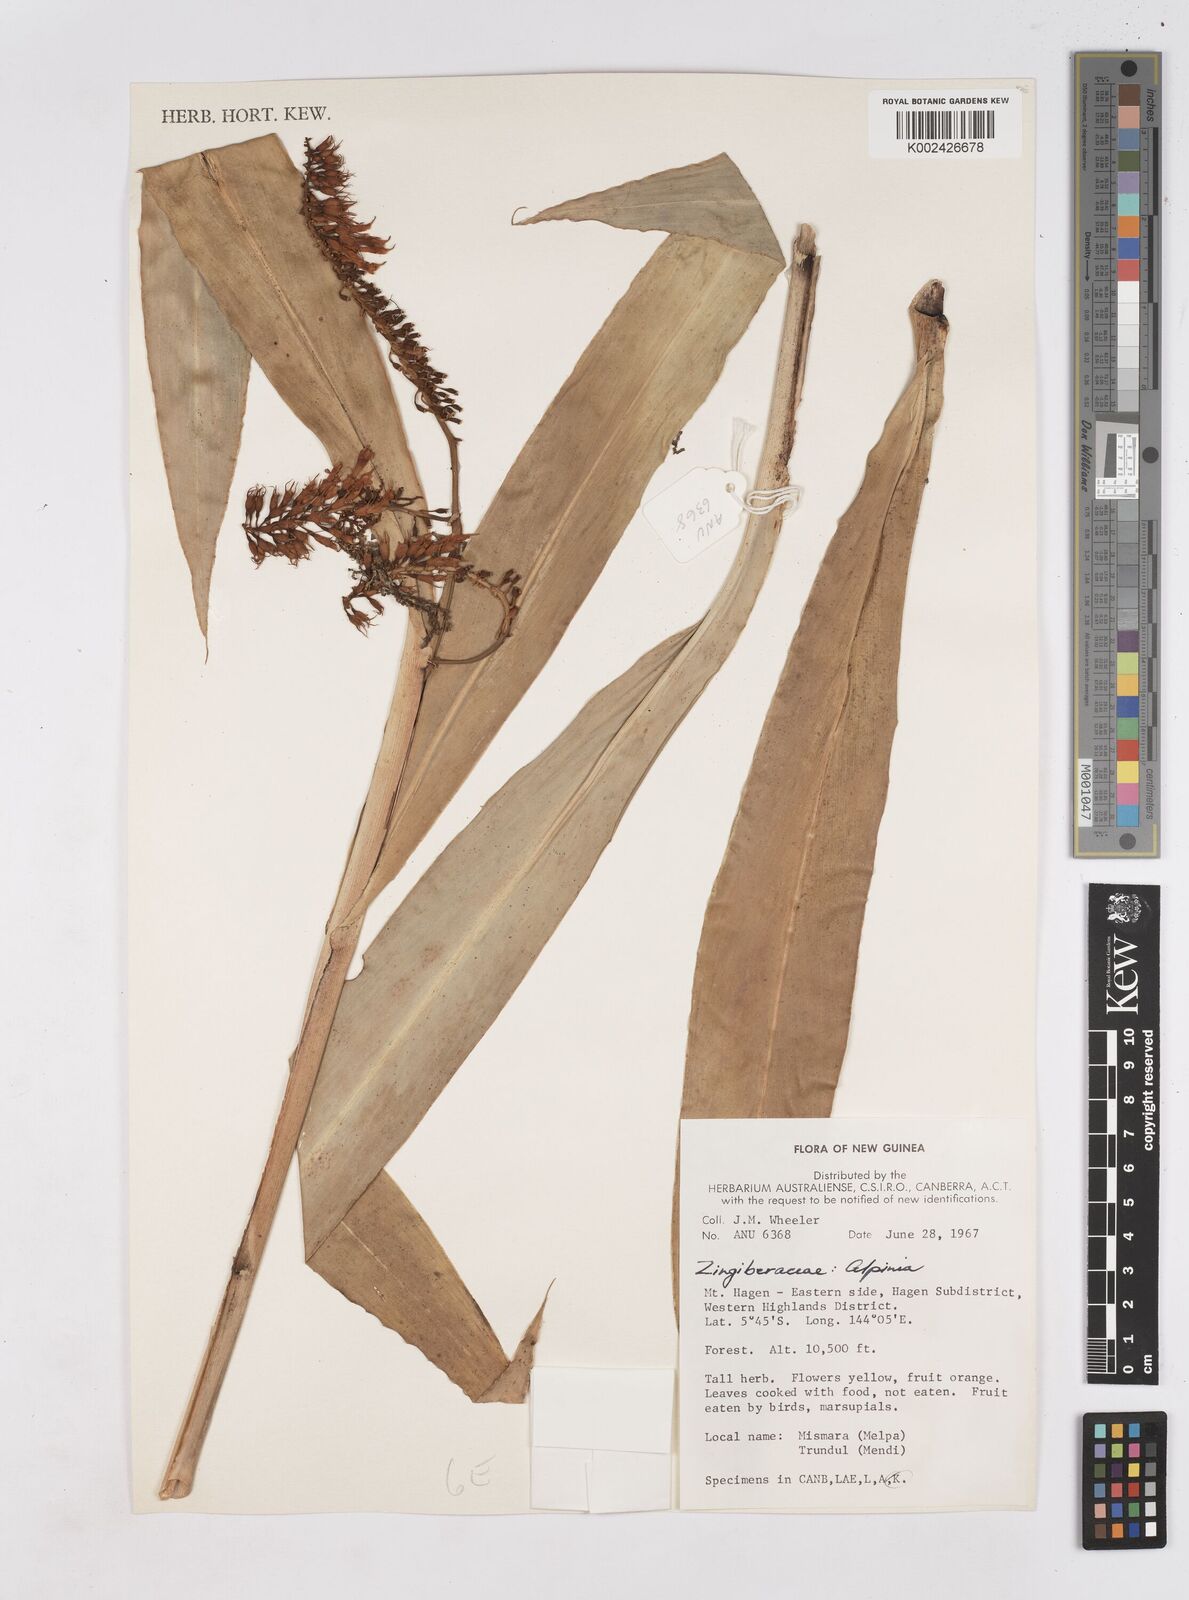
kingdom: Plantae
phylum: Tracheophyta
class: Liliopsida
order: Zingiberales
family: Zingiberaceae
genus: Riedelia
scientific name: Riedelia
